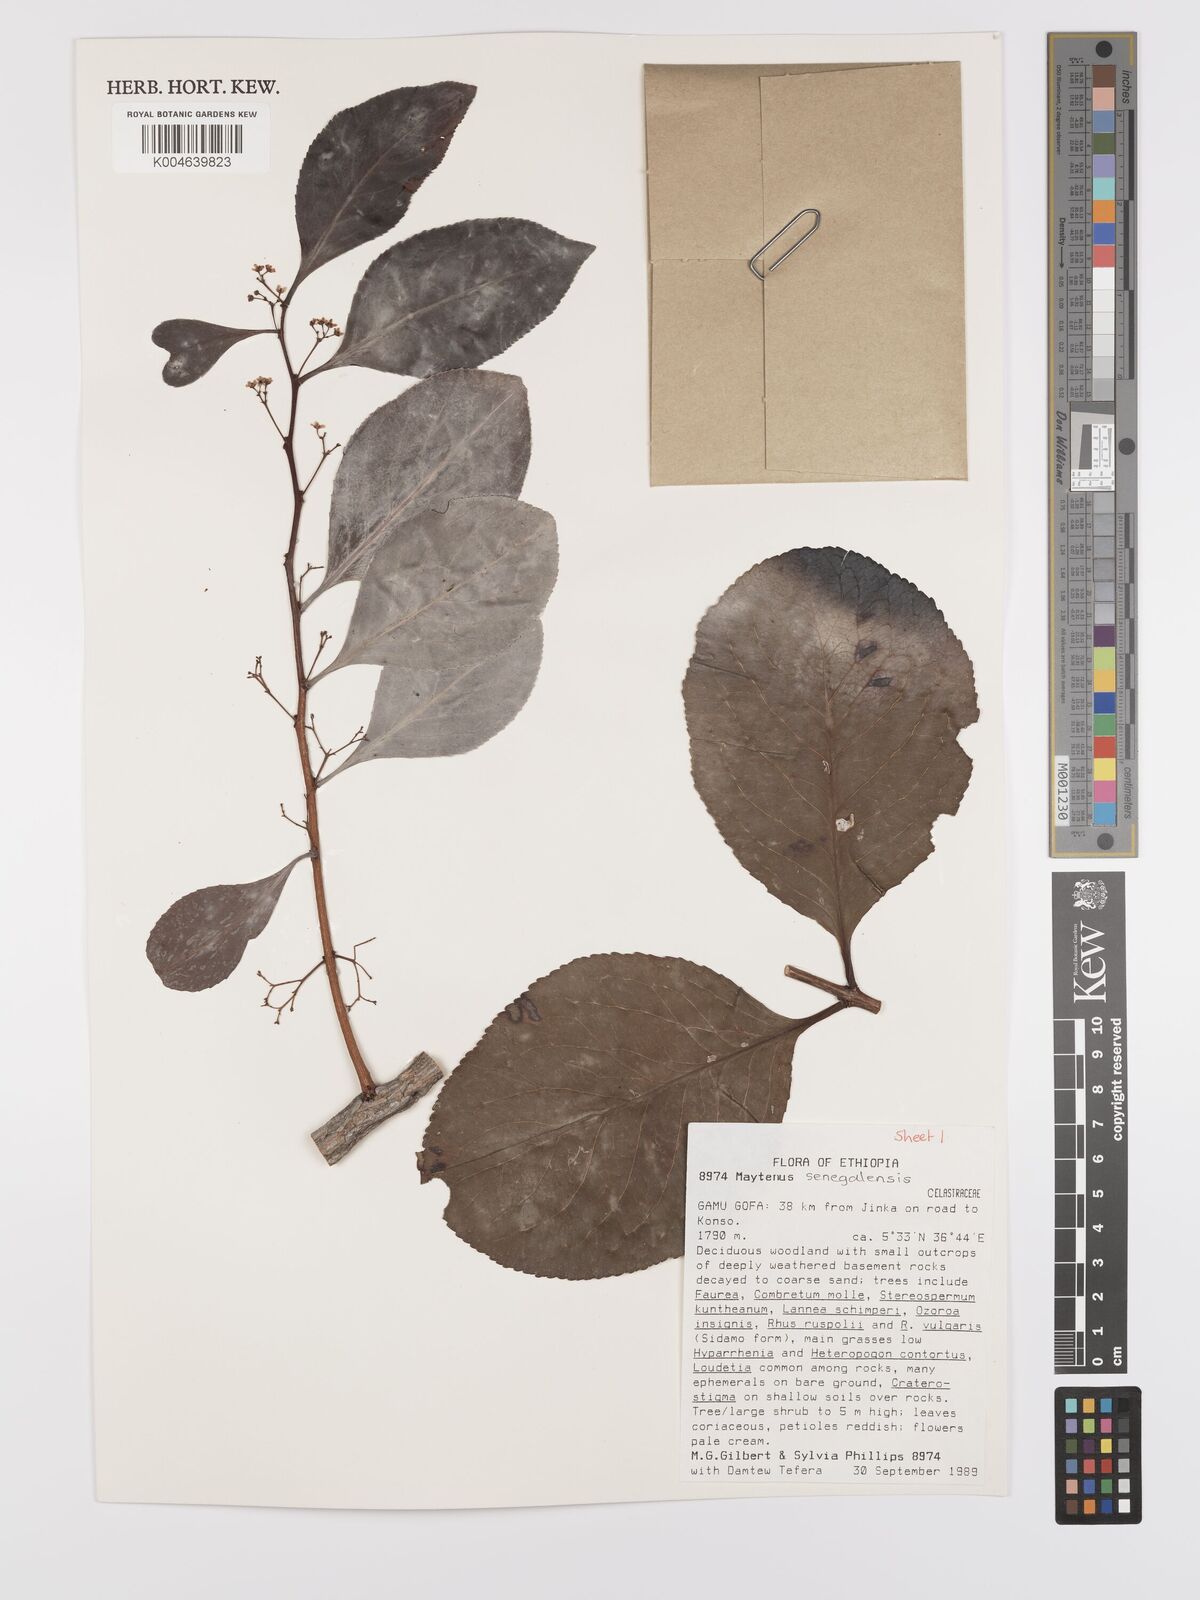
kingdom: Plantae
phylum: Tracheophyta
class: Magnoliopsida
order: Celastrales
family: Celastraceae
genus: Gymnosporia
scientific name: Gymnosporia senegalensis
